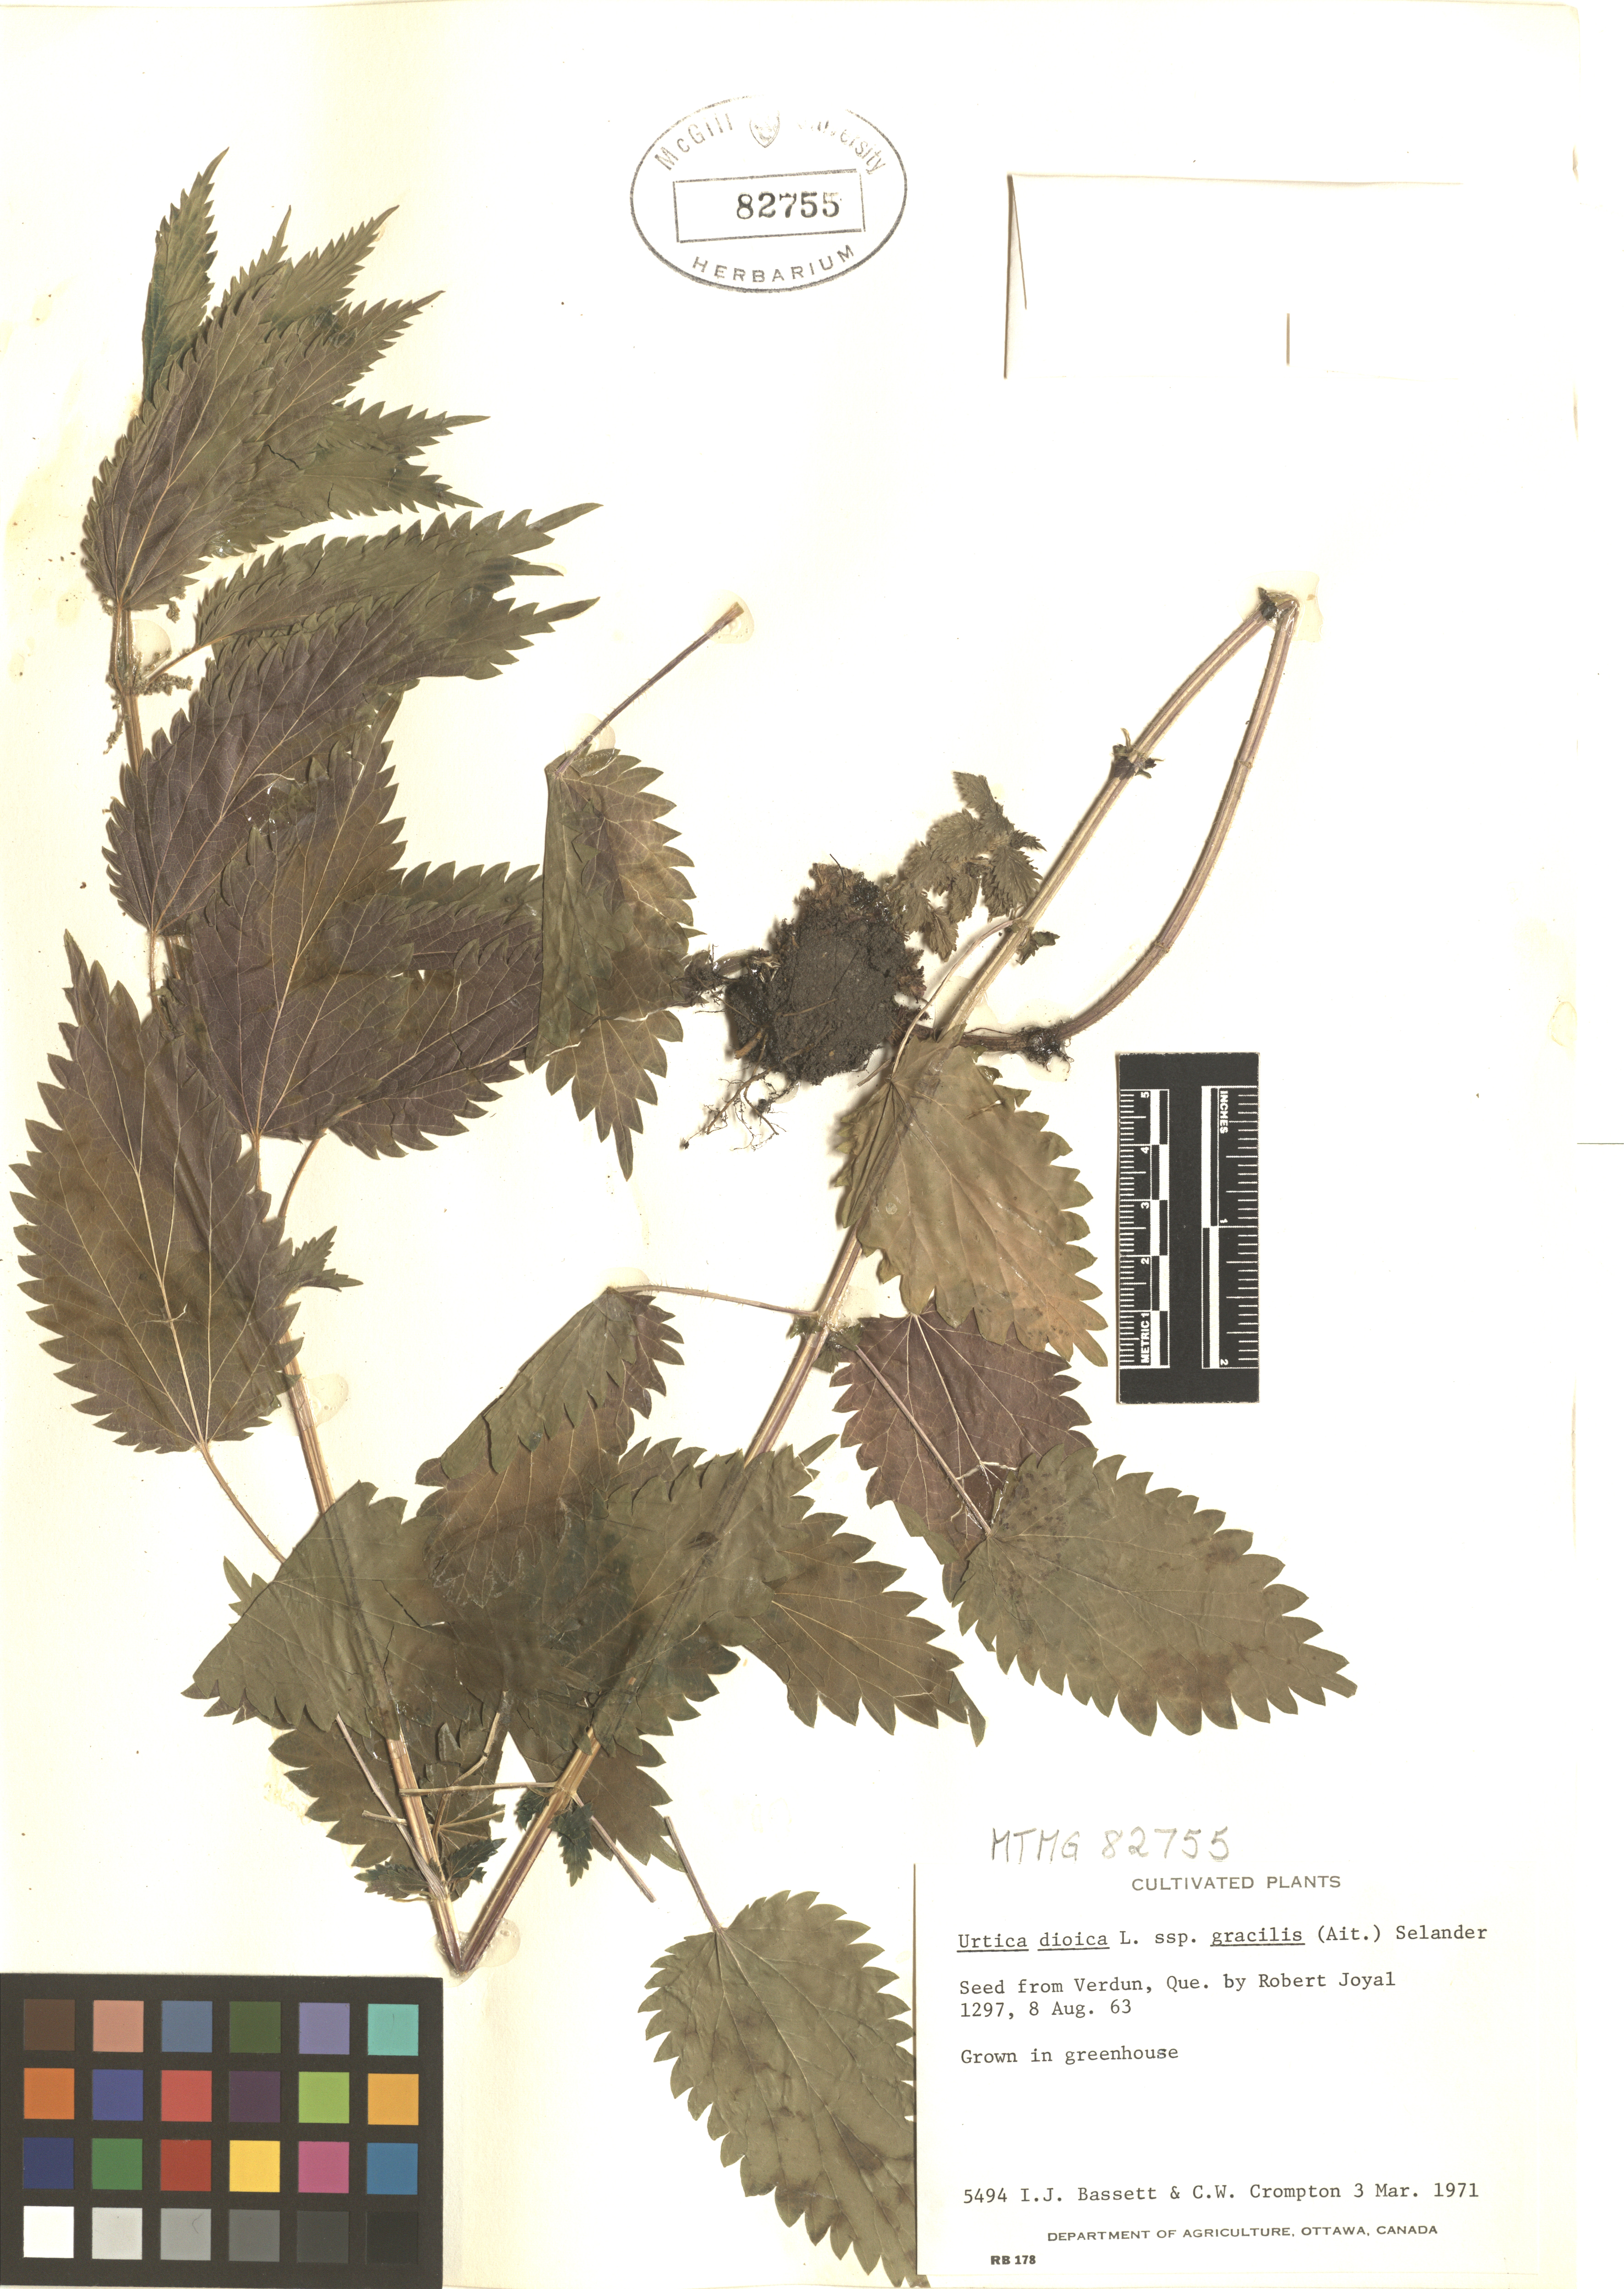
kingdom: Plantae
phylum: Tracheophyta
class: Magnoliopsida
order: Rosales
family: Urticaceae
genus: Urtica
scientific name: Urtica gracilis
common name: Slender stinging nettle
